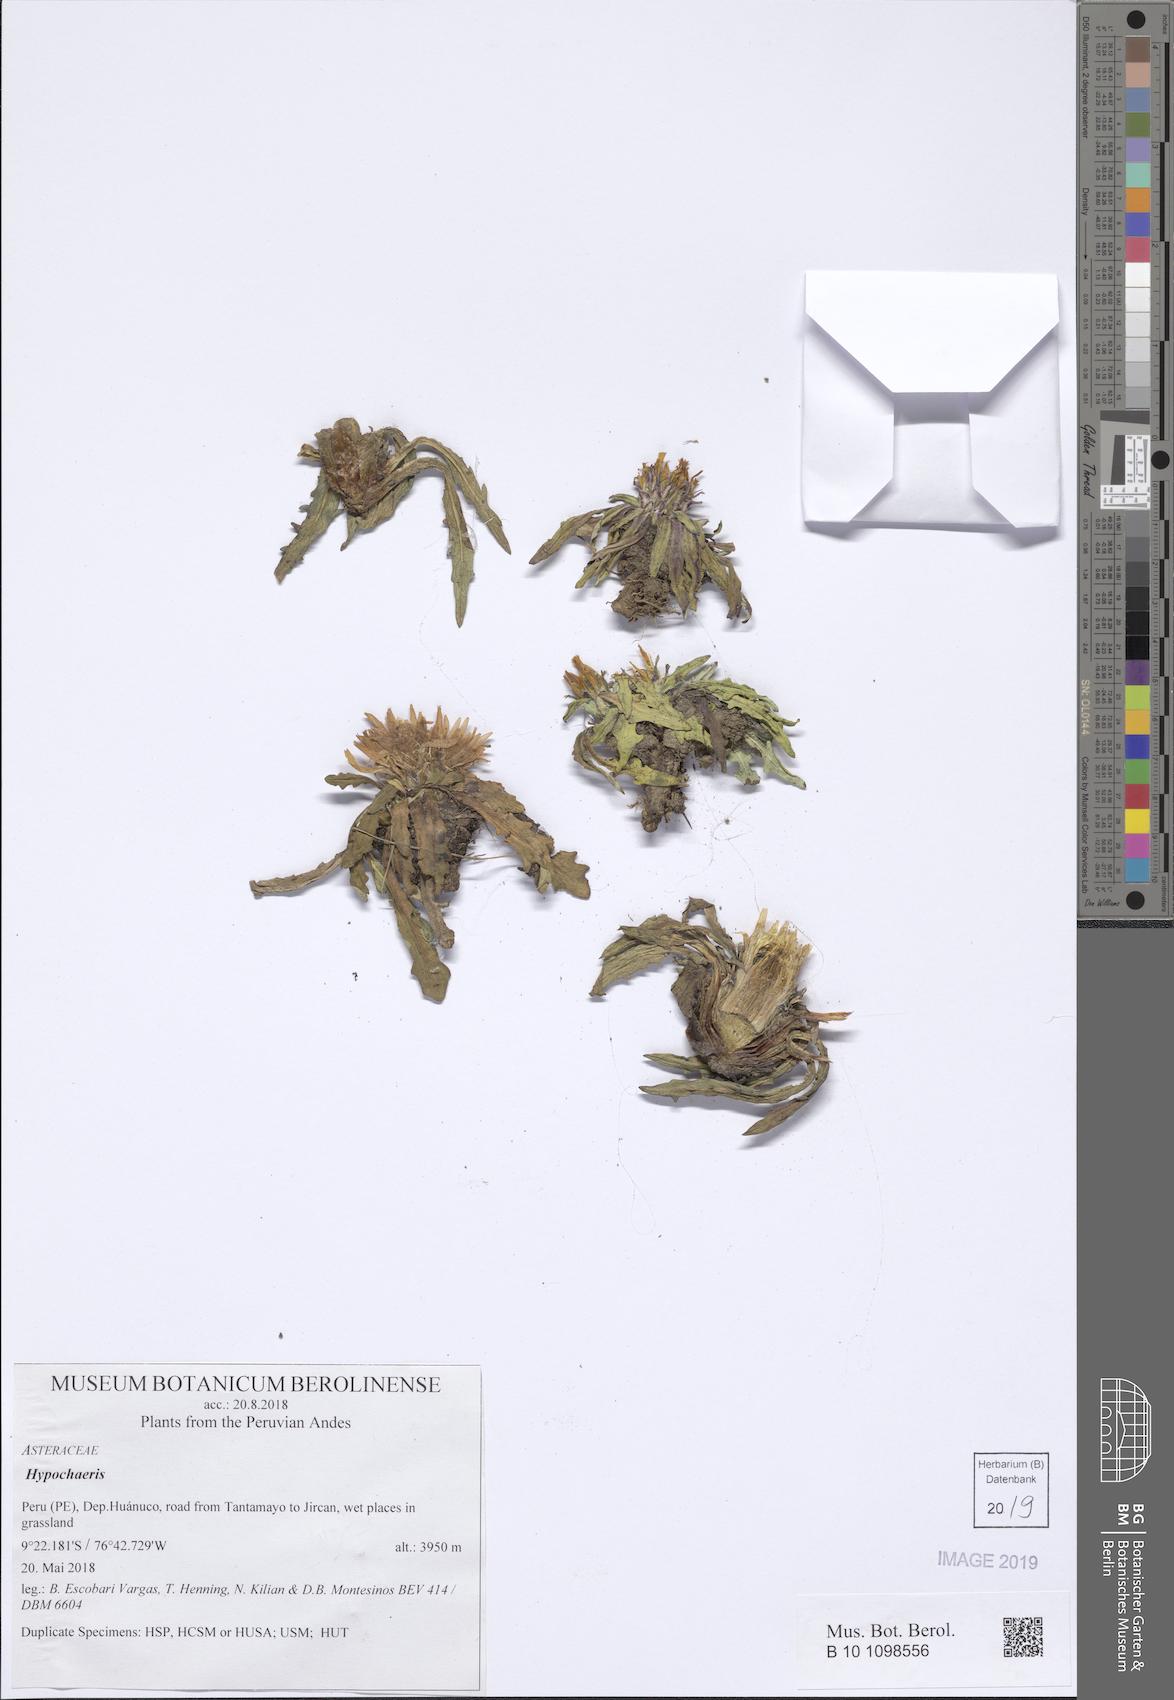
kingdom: Plantae
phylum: Tracheophyta
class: Magnoliopsida
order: Asterales
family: Asteraceae
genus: Hypochaeris
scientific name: Hypochaeris
